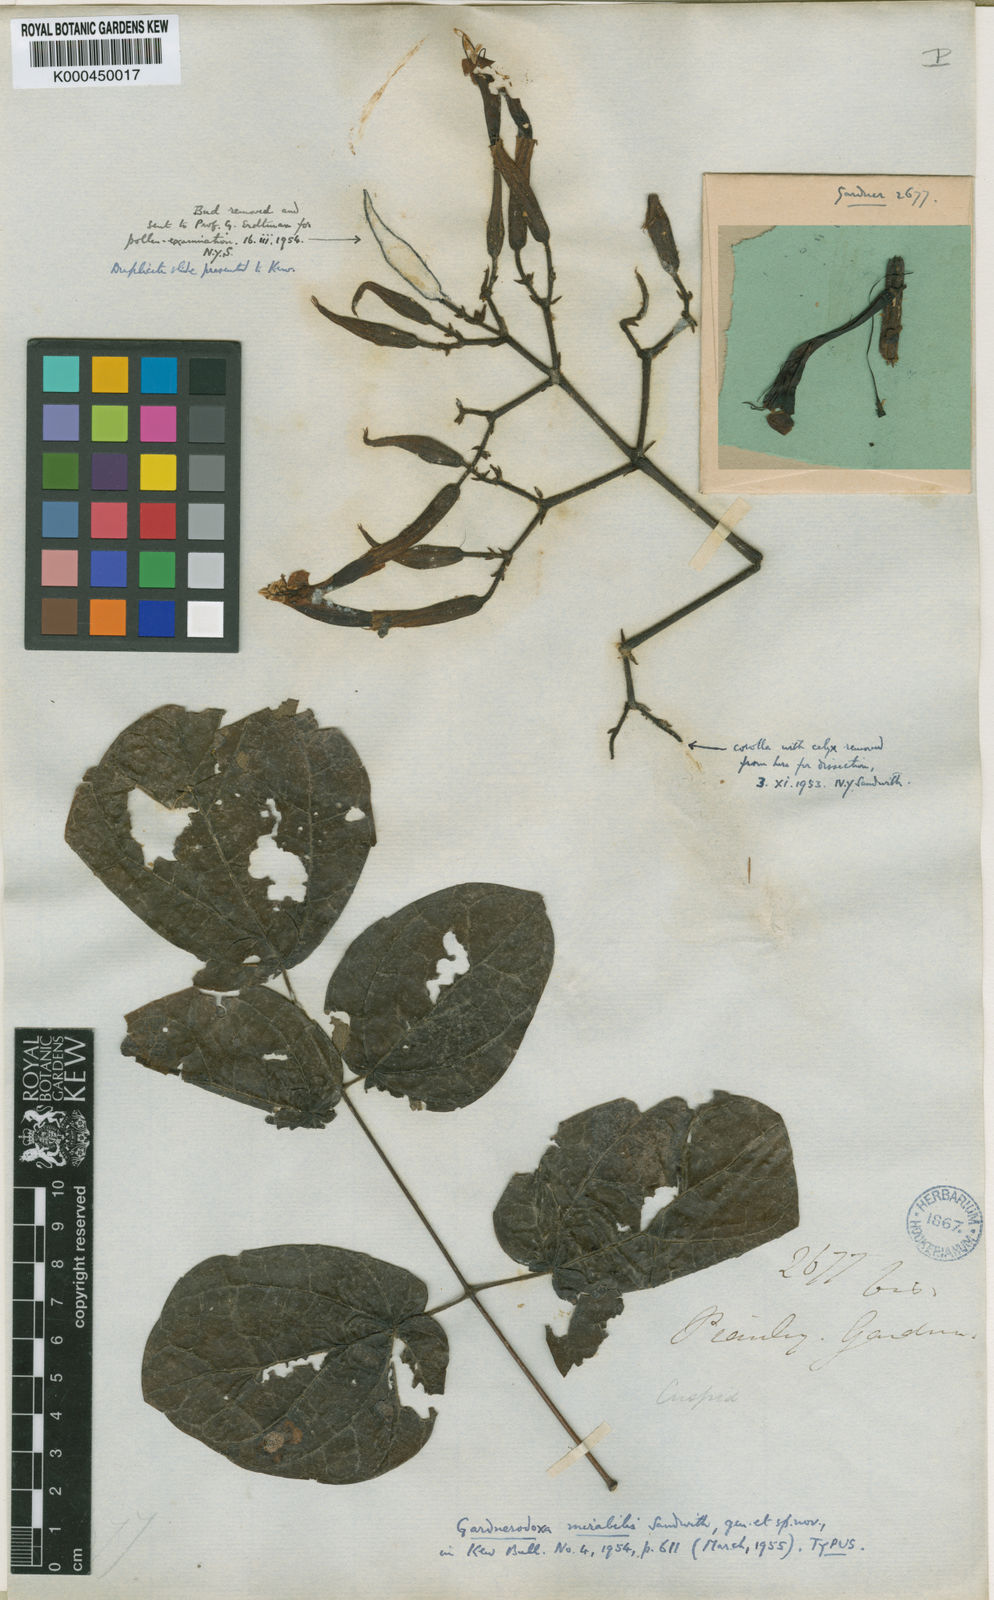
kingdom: Plantae
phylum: Tracheophyta
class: Magnoliopsida
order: Lamiales
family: Bignoniaceae
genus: Adenocalymma
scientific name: Adenocalymma mirabile
